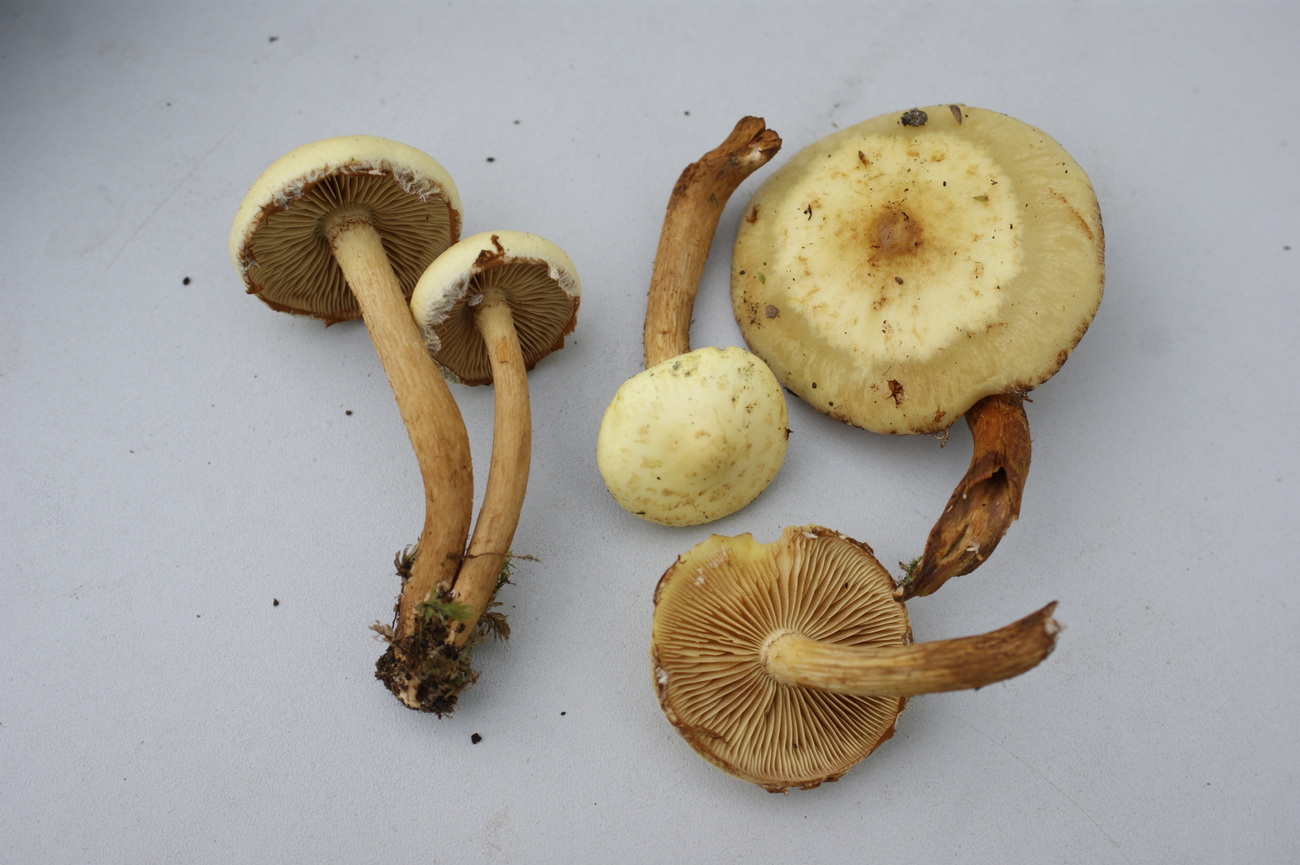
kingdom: Fungi
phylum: Basidiomycota
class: Agaricomycetes
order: Agaricales
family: Hymenogastraceae
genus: Flammula
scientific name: Flammula alnicola
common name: elle-skælhat
